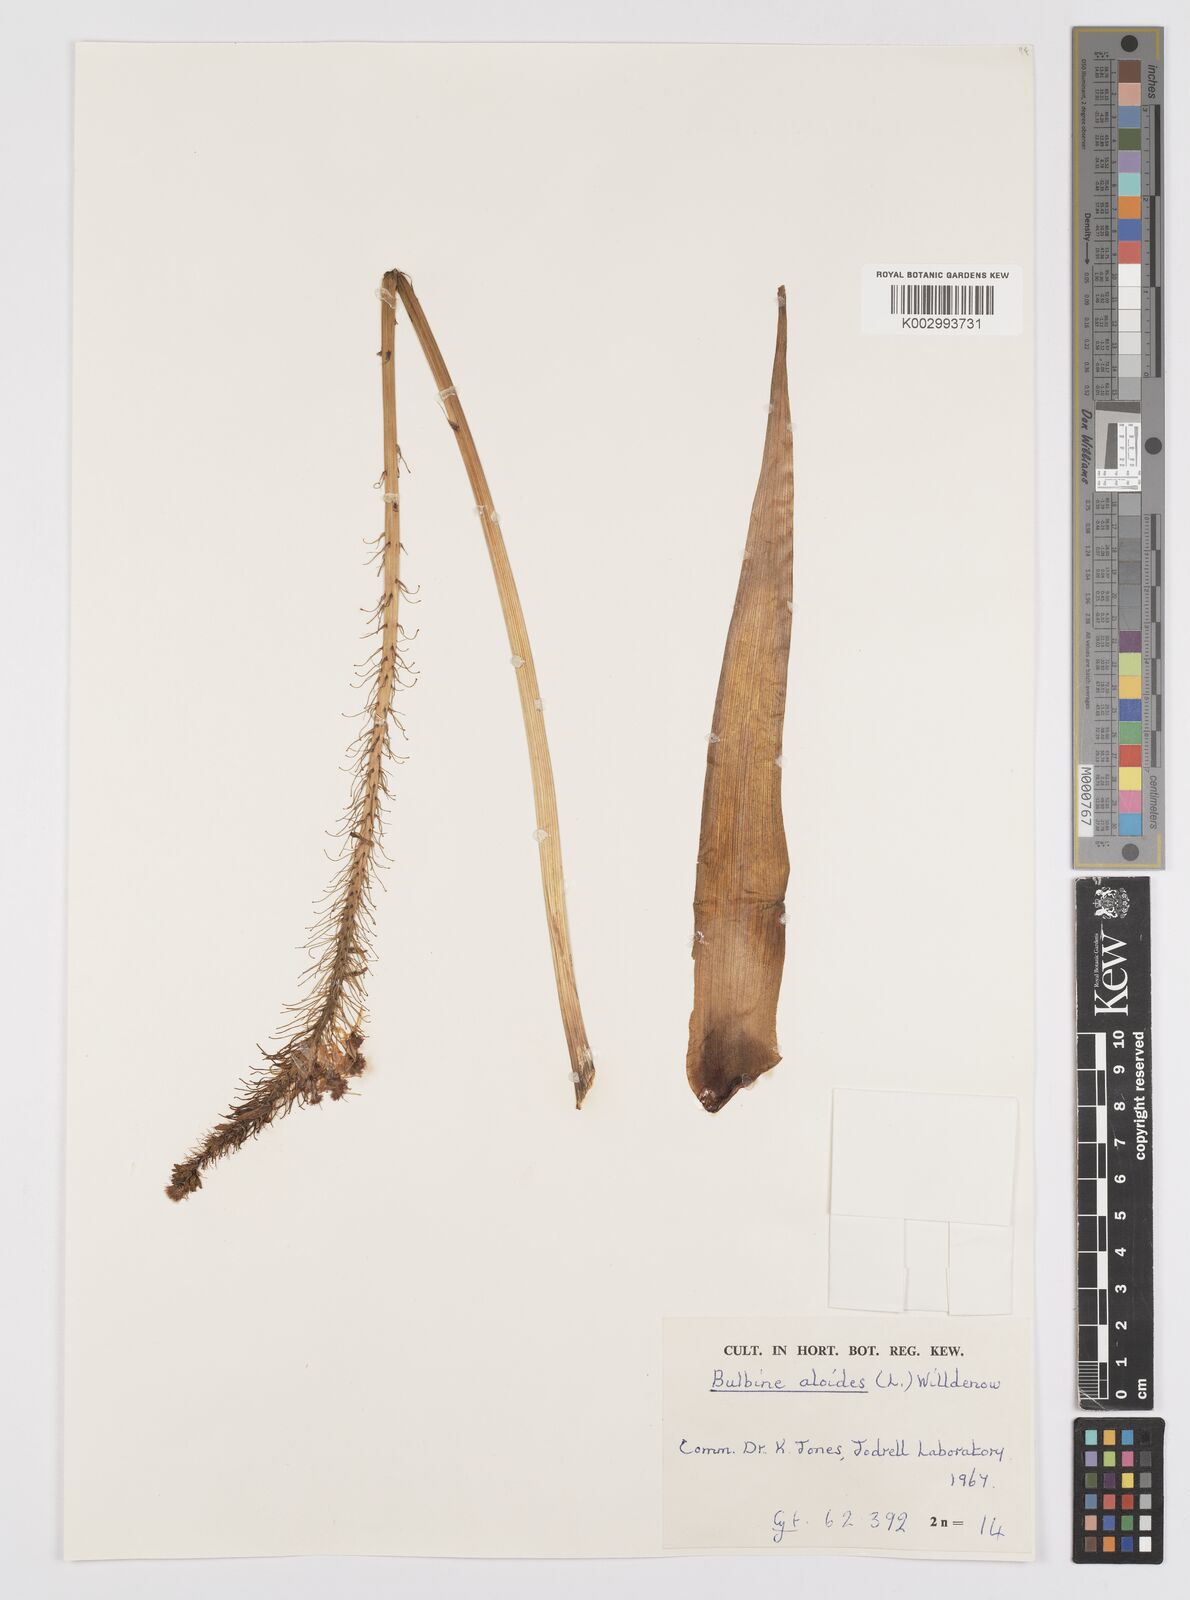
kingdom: Plantae
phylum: Tracheophyta
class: Liliopsida
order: Asparagales
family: Asphodelaceae
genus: Bulbine
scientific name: Bulbine alooides
